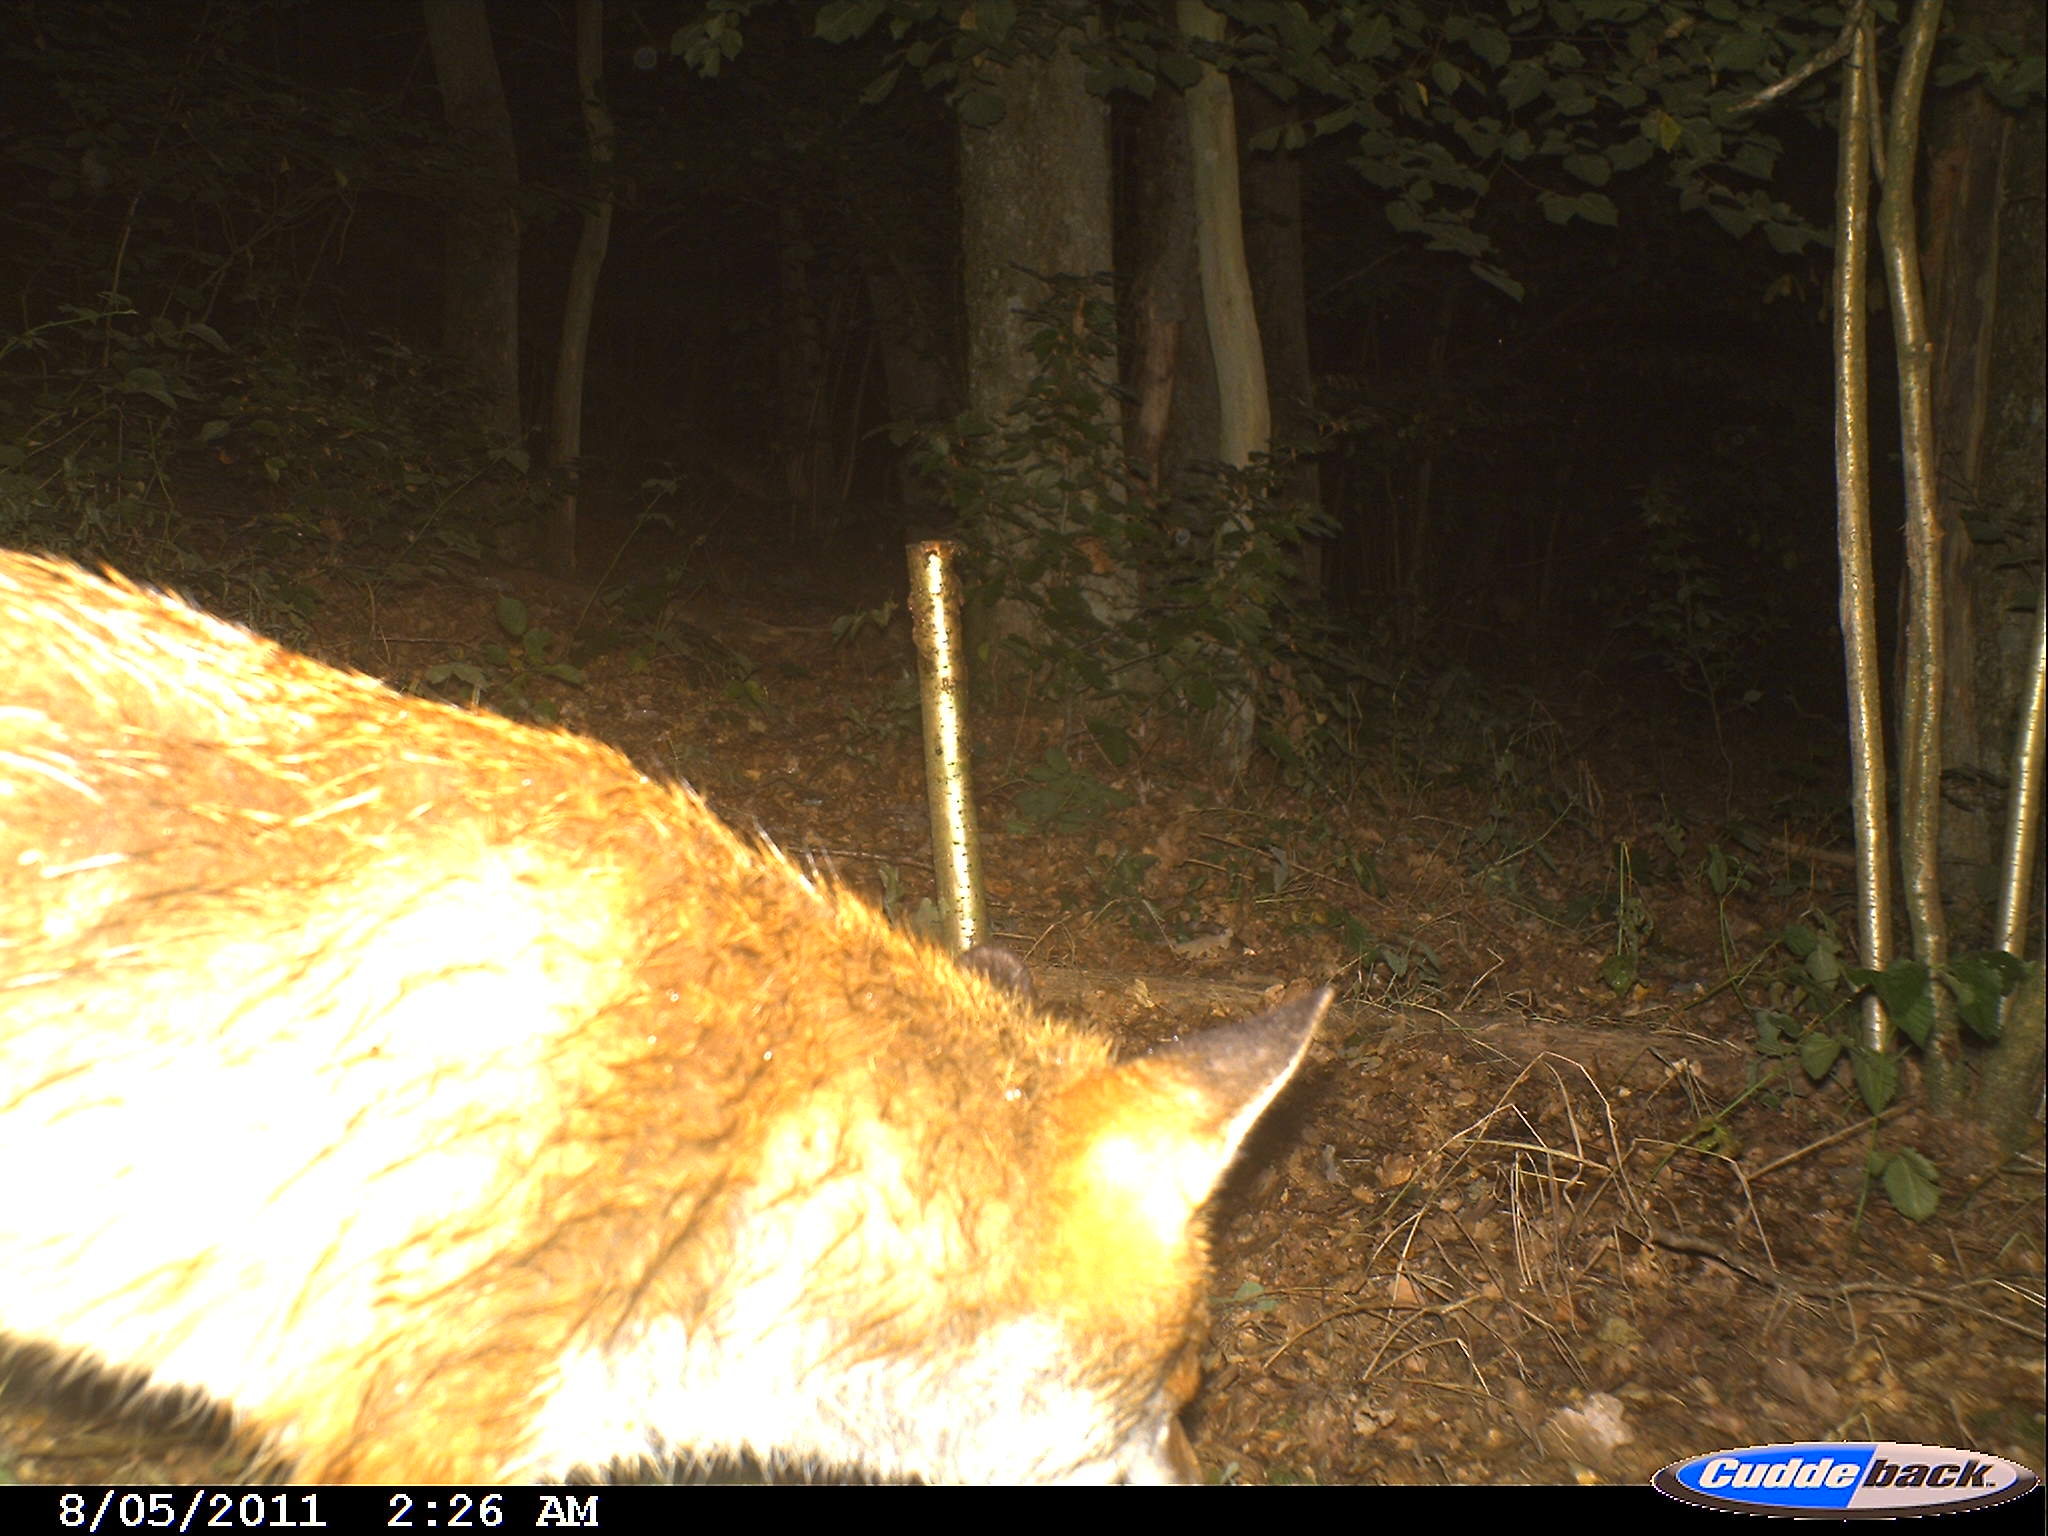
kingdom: Animalia
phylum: Chordata
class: Mammalia
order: Carnivora
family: Canidae
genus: Vulpes
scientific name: Vulpes vulpes
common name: Red fox
